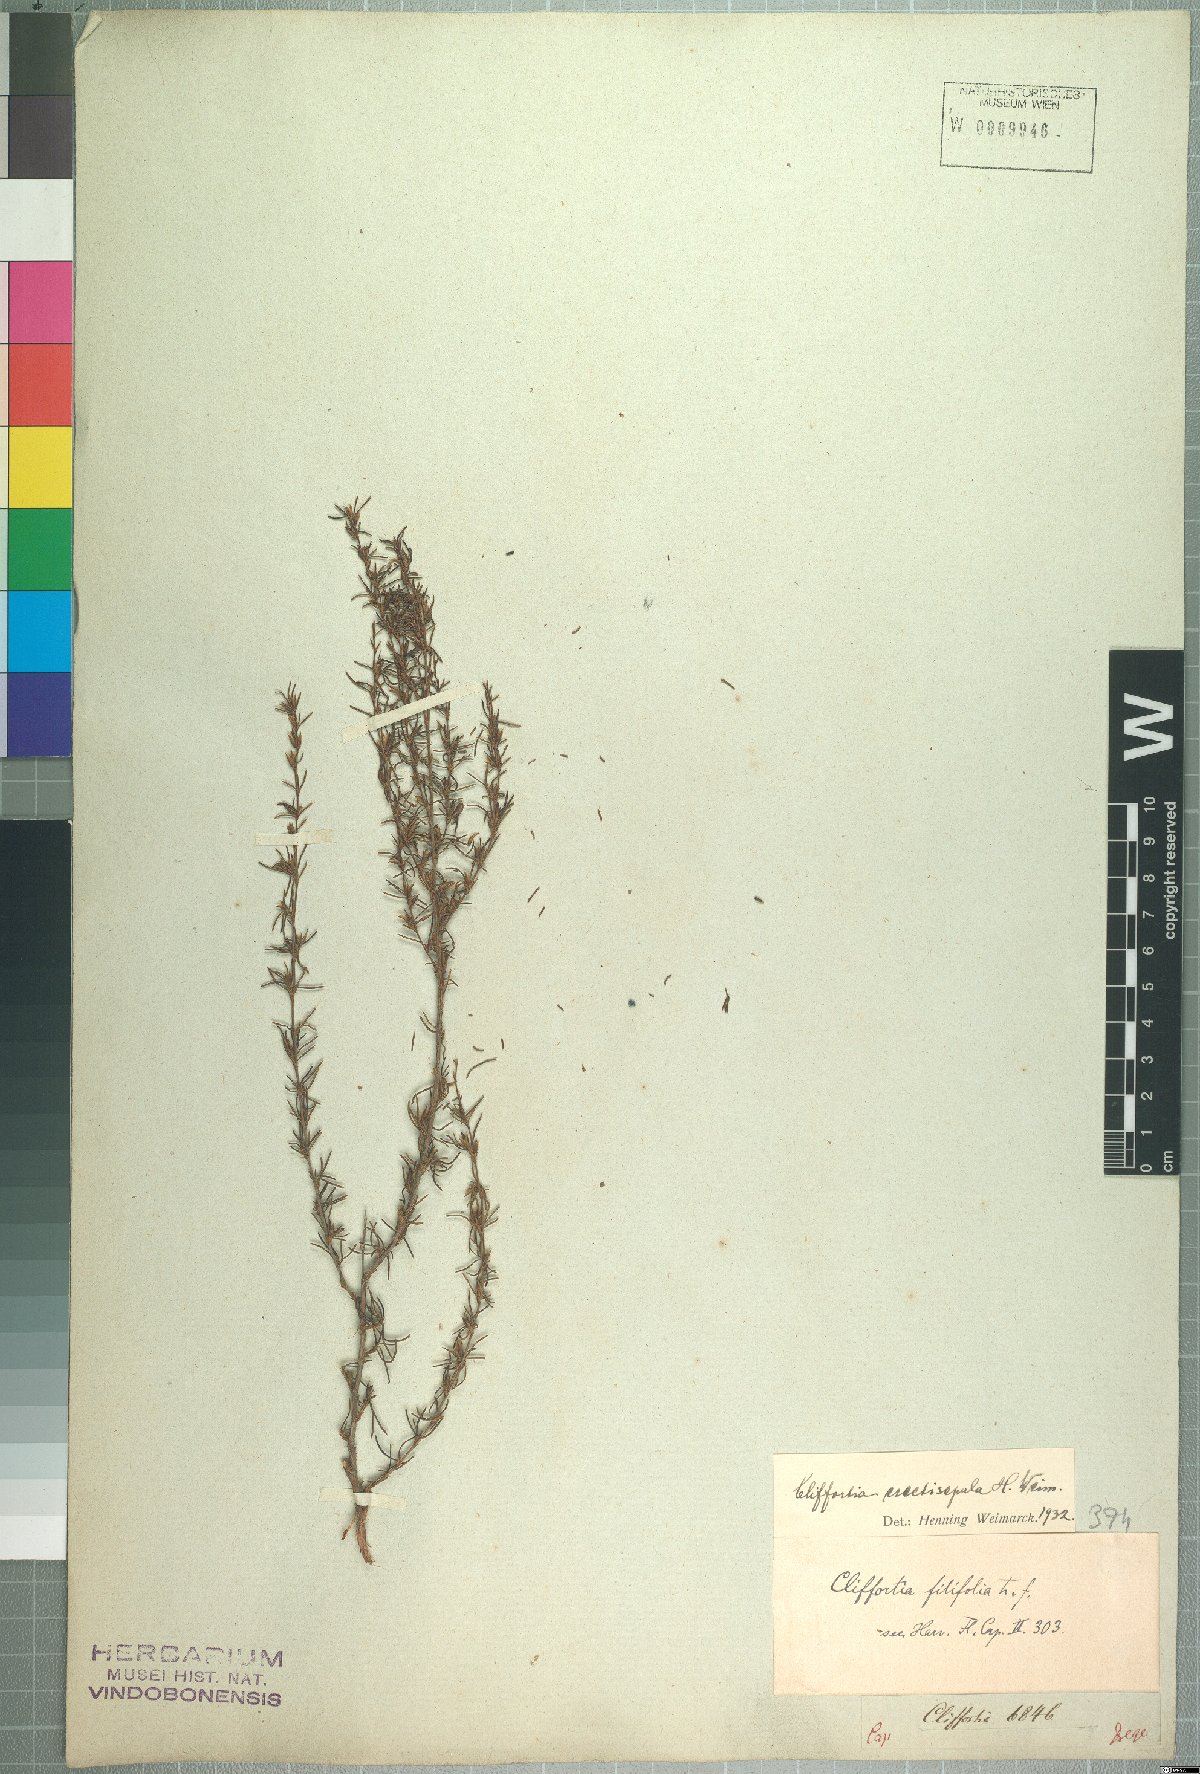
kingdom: Plantae
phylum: Tracheophyta
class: Magnoliopsida
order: Rosales
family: Rosaceae
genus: Cliffortia
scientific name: Cliffortia erectisepala
